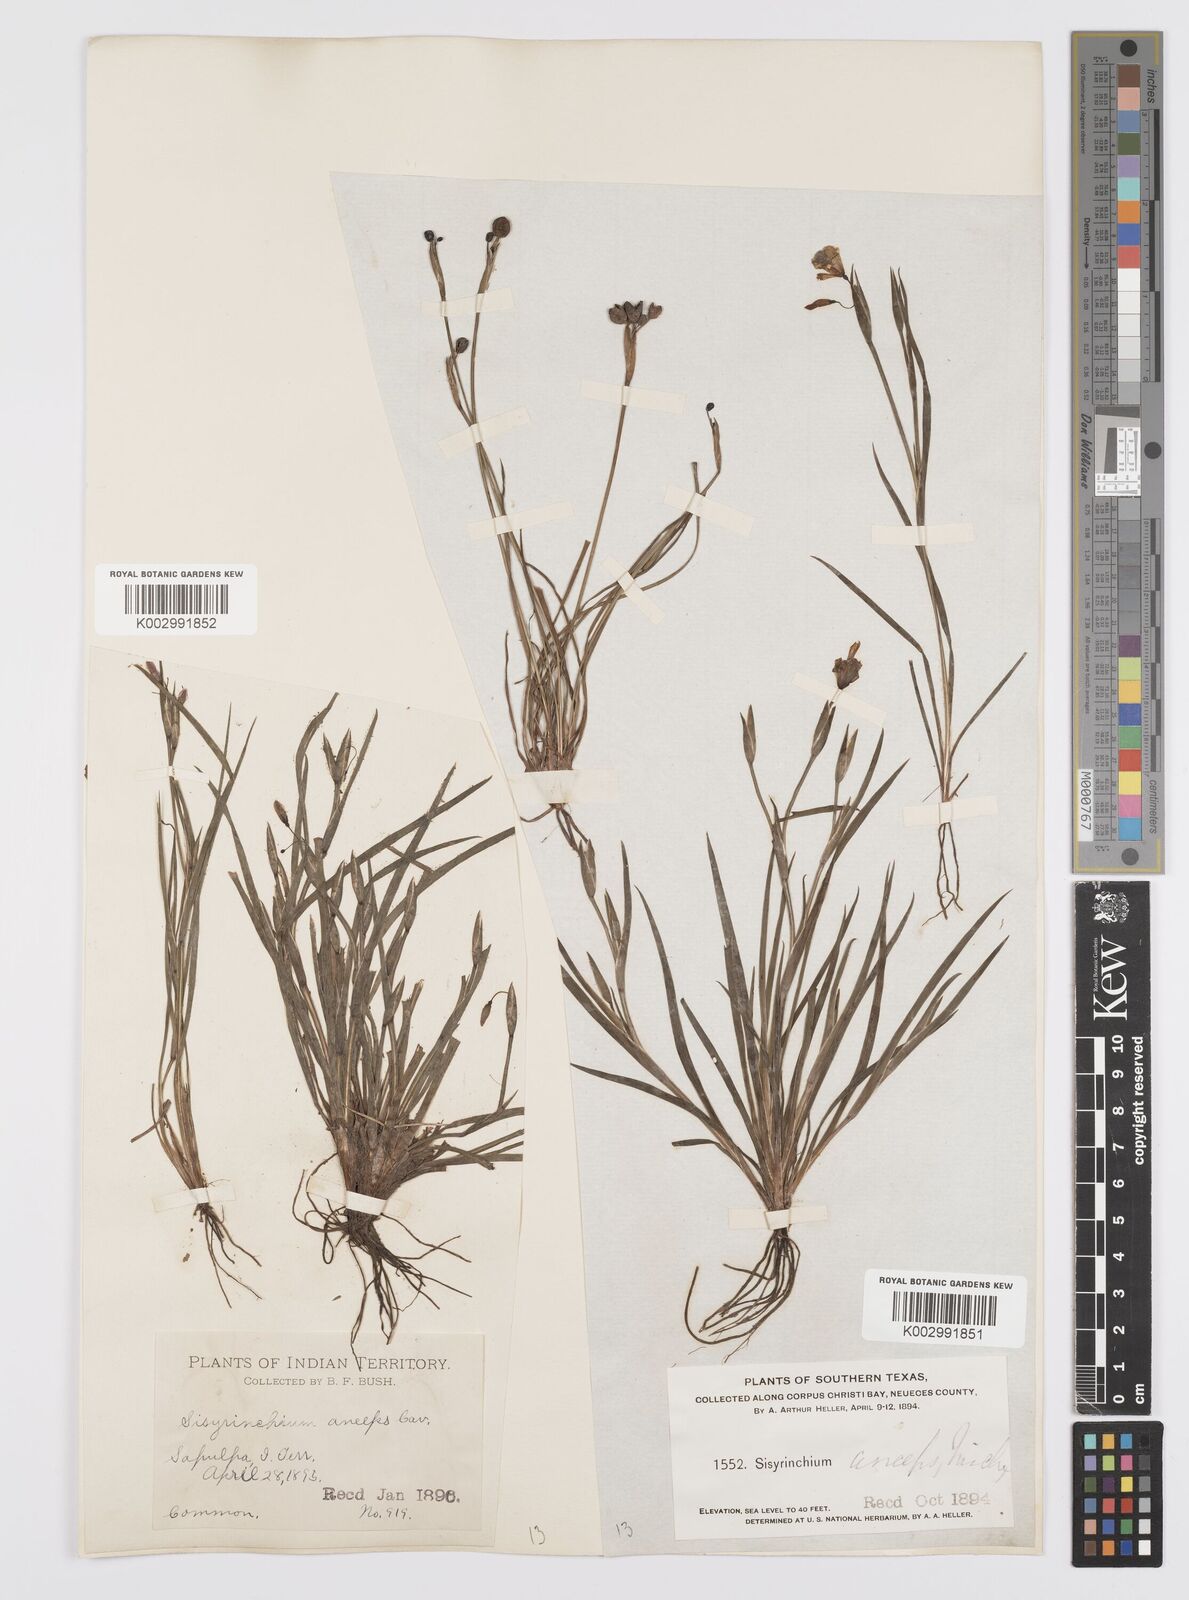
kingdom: Plantae
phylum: Tracheophyta
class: Liliopsida
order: Asparagales
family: Iridaceae
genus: Sisyrinchium
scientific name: Sisyrinchium bermudiana
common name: Blue-eyed-grass
